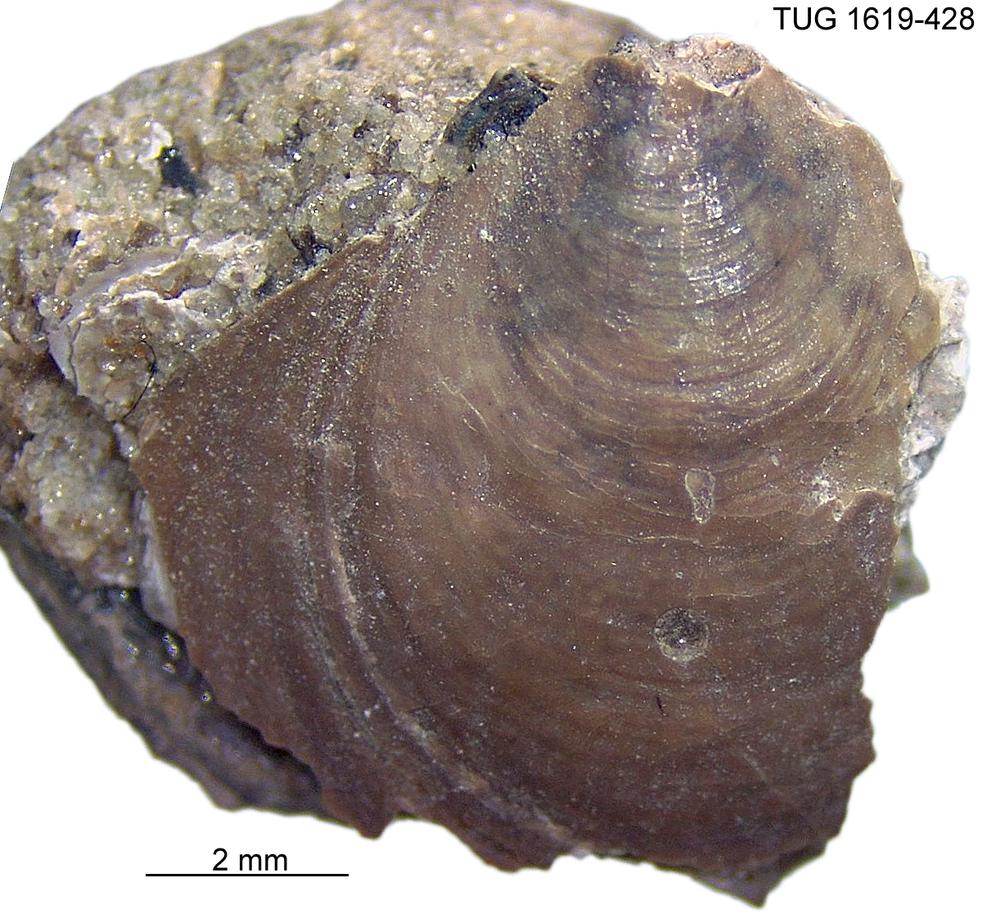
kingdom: Animalia
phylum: Porifera
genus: Ungula
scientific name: Ungula
